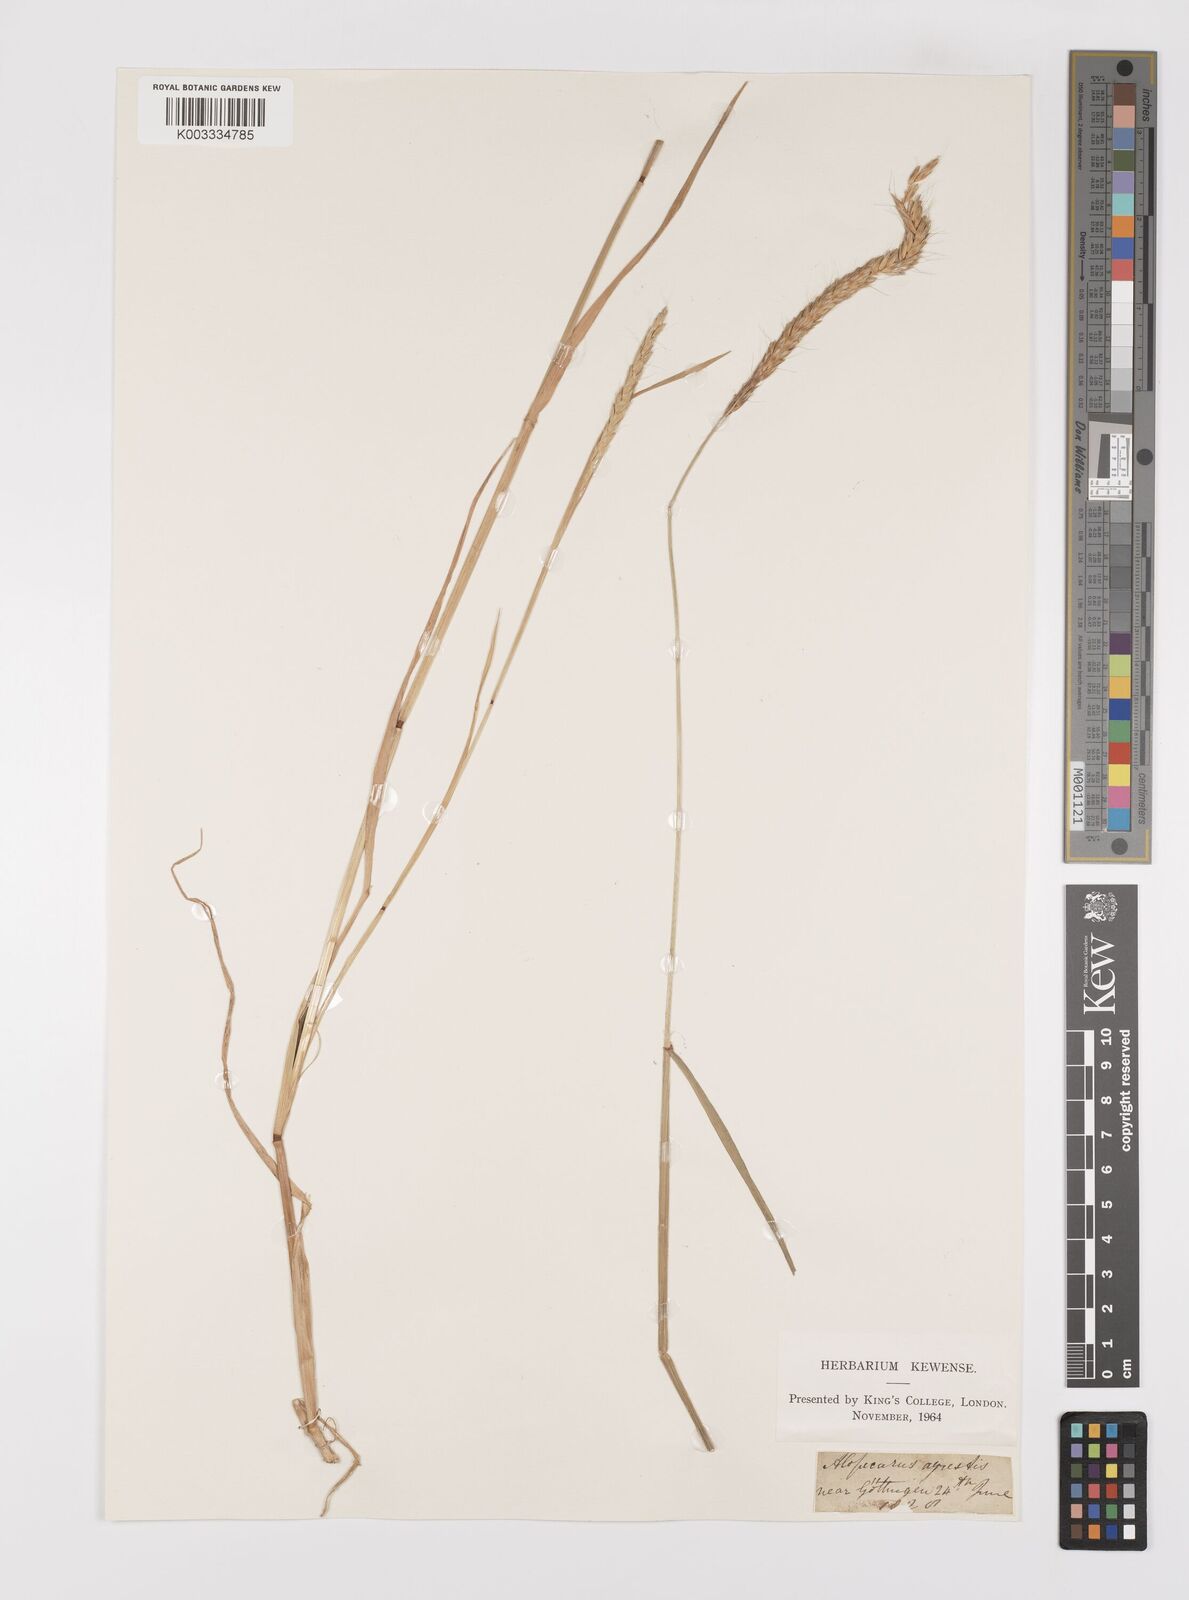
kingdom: Plantae
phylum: Tracheophyta
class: Liliopsida
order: Poales
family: Poaceae
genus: Alopecurus
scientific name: Alopecurus myosuroides
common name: Black-grass
